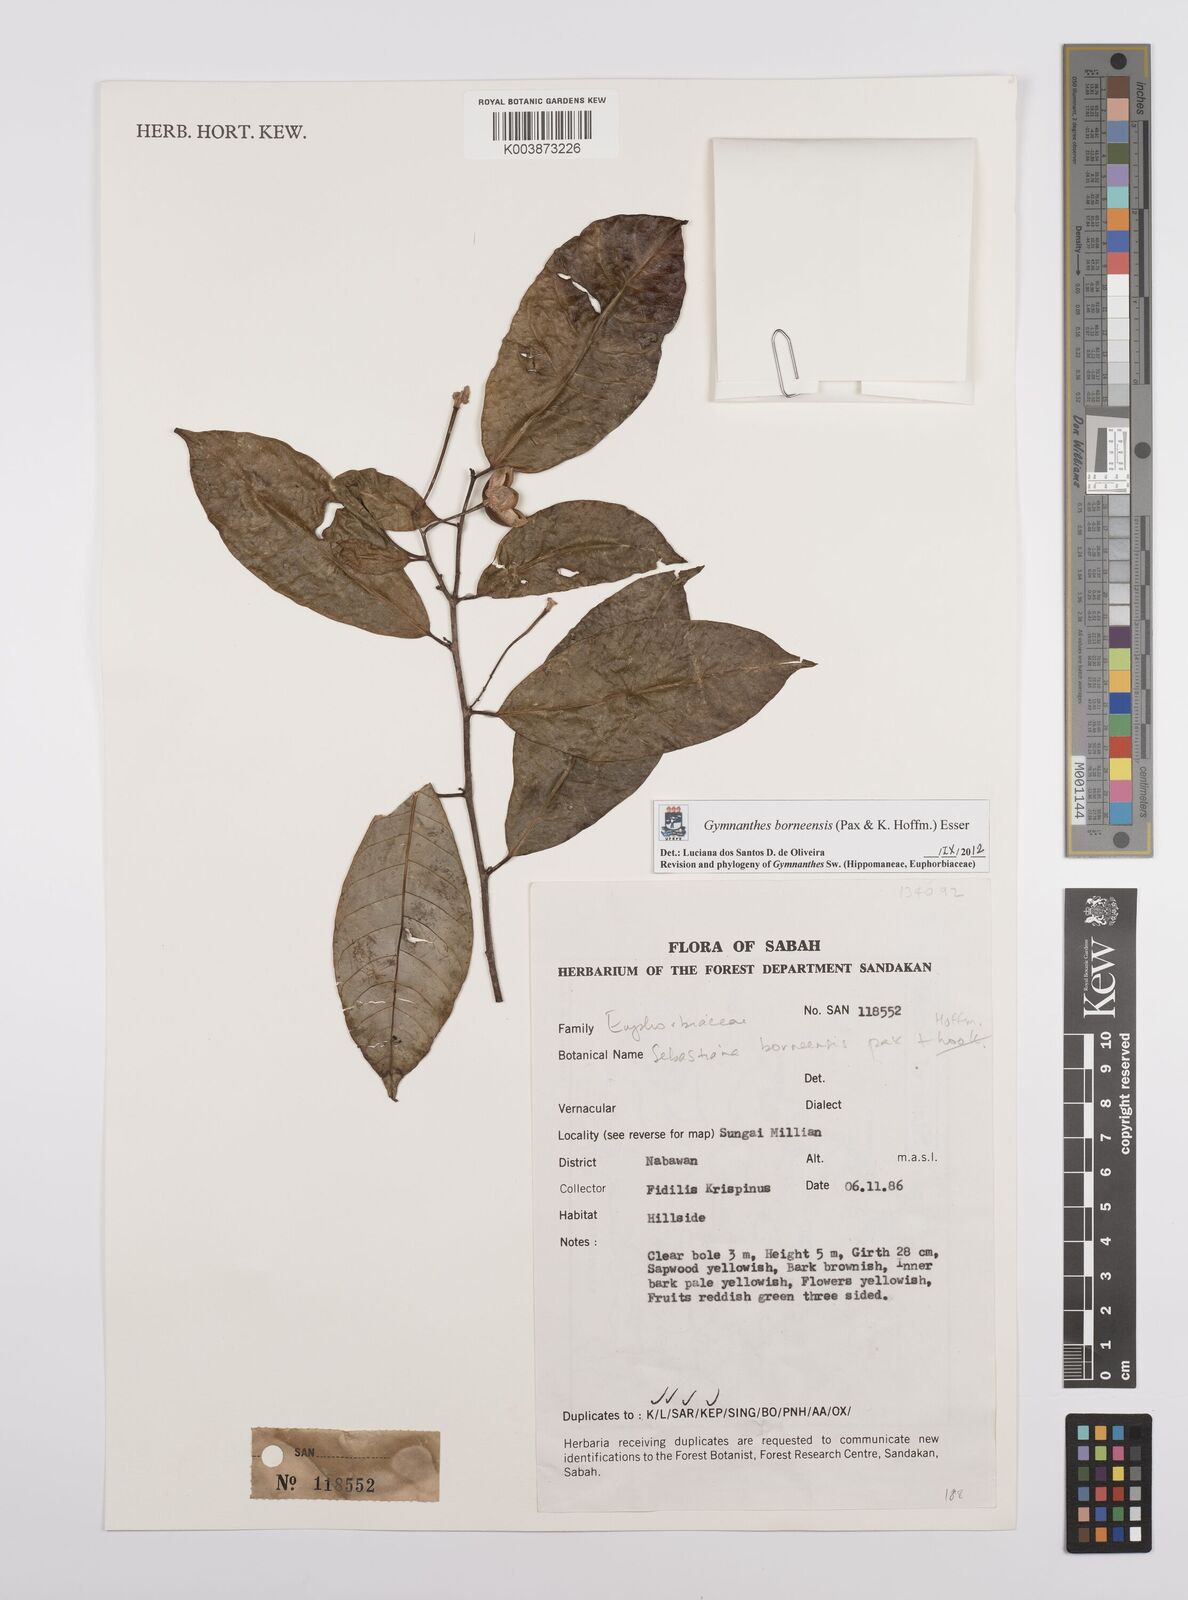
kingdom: Plantae
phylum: Tracheophyta
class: Magnoliopsida
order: Malpighiales
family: Euphorbiaceae
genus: Gymnanthes
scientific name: Gymnanthes borneensis
